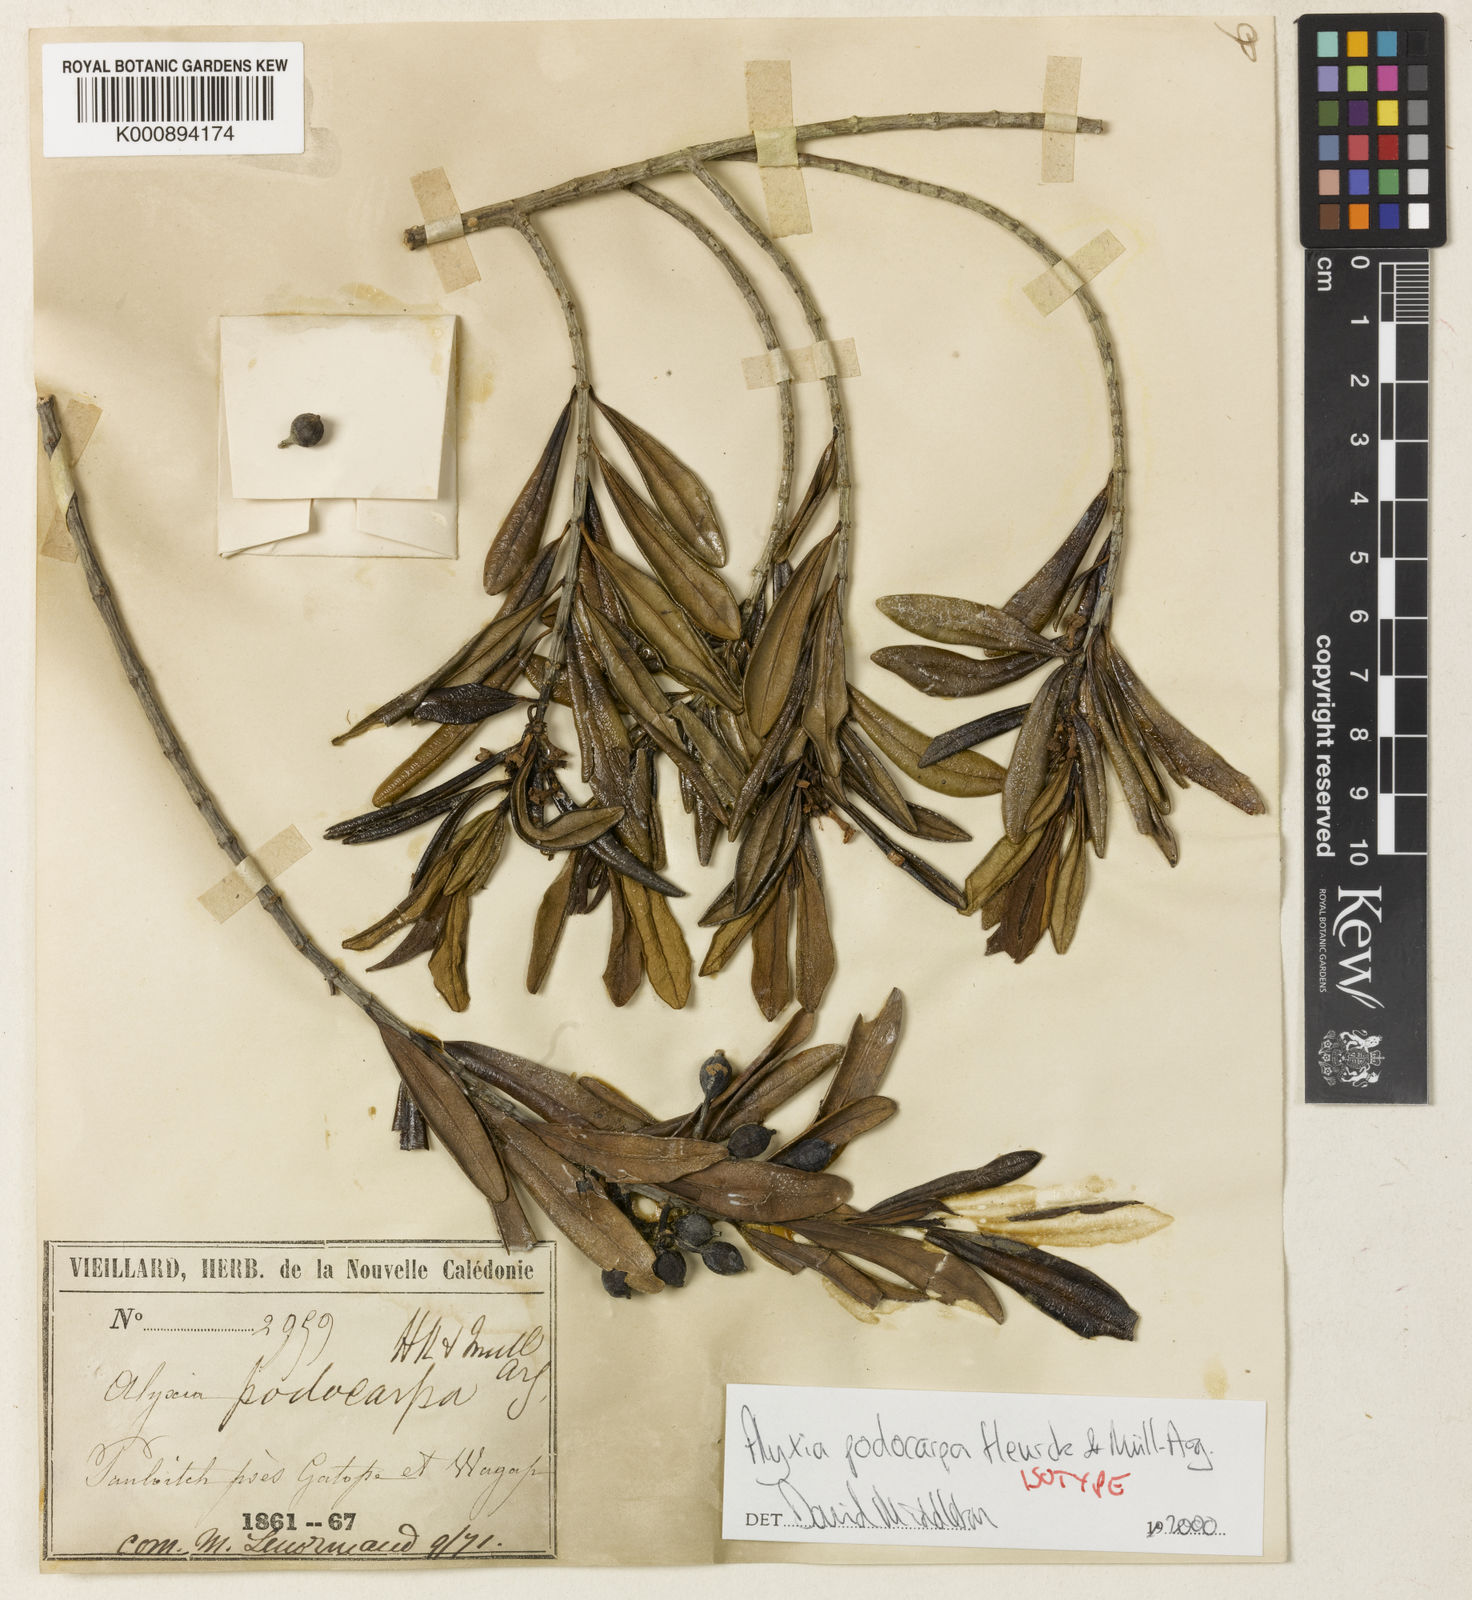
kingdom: Plantae
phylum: Tracheophyta
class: Magnoliopsida
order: Gentianales
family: Apocynaceae
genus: Alyxia
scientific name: Alyxia
